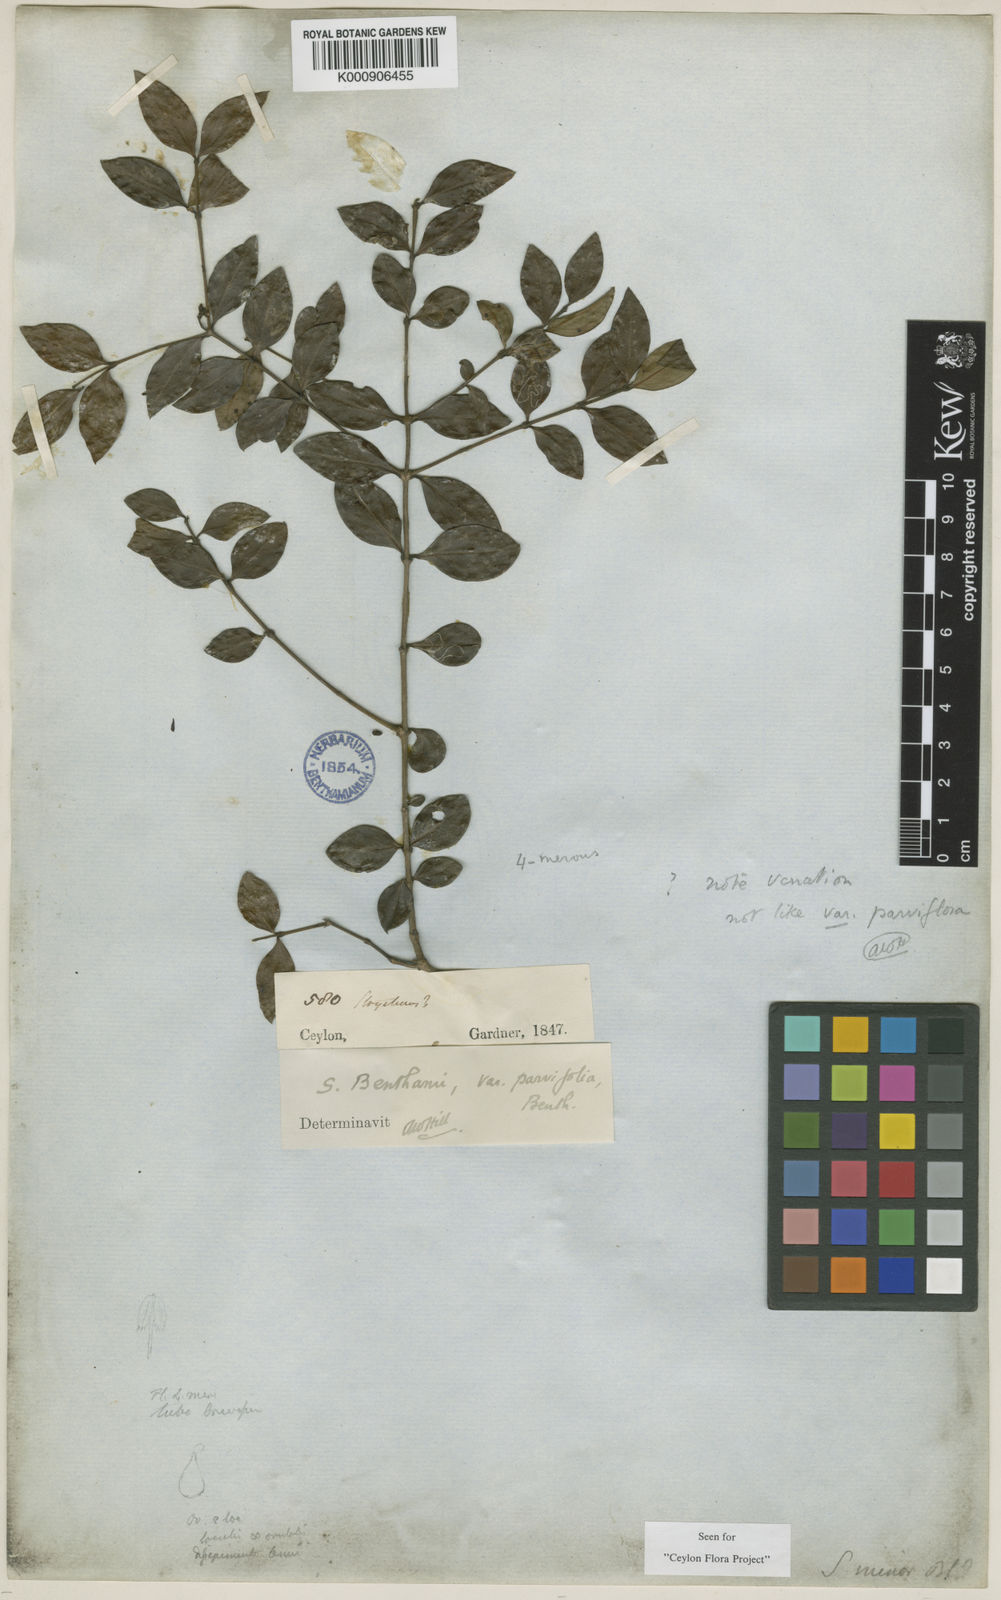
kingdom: Plantae
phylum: Tracheophyta
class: Magnoliopsida
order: Gentianales
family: Loganiaceae
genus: Strychnos
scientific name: Strychnos benthamii
